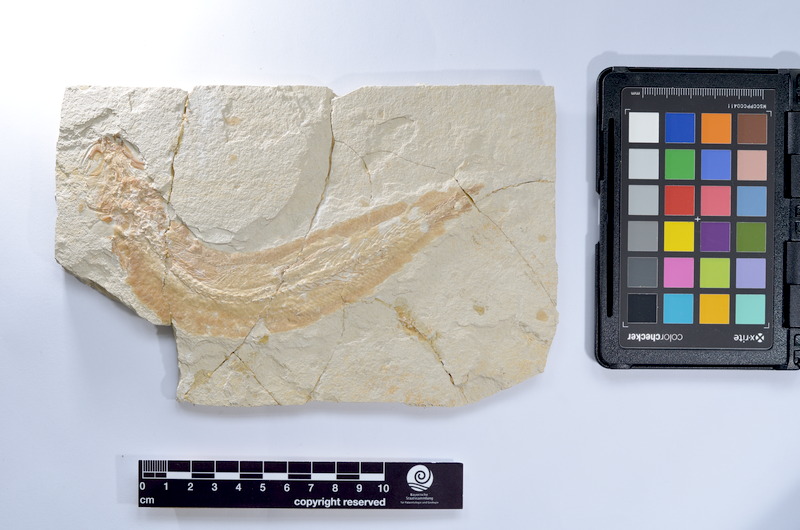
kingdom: Animalia
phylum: Chordata
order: Elopiformes
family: Anaethalionidae
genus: Anaethalion
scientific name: Anaethalion knorri
